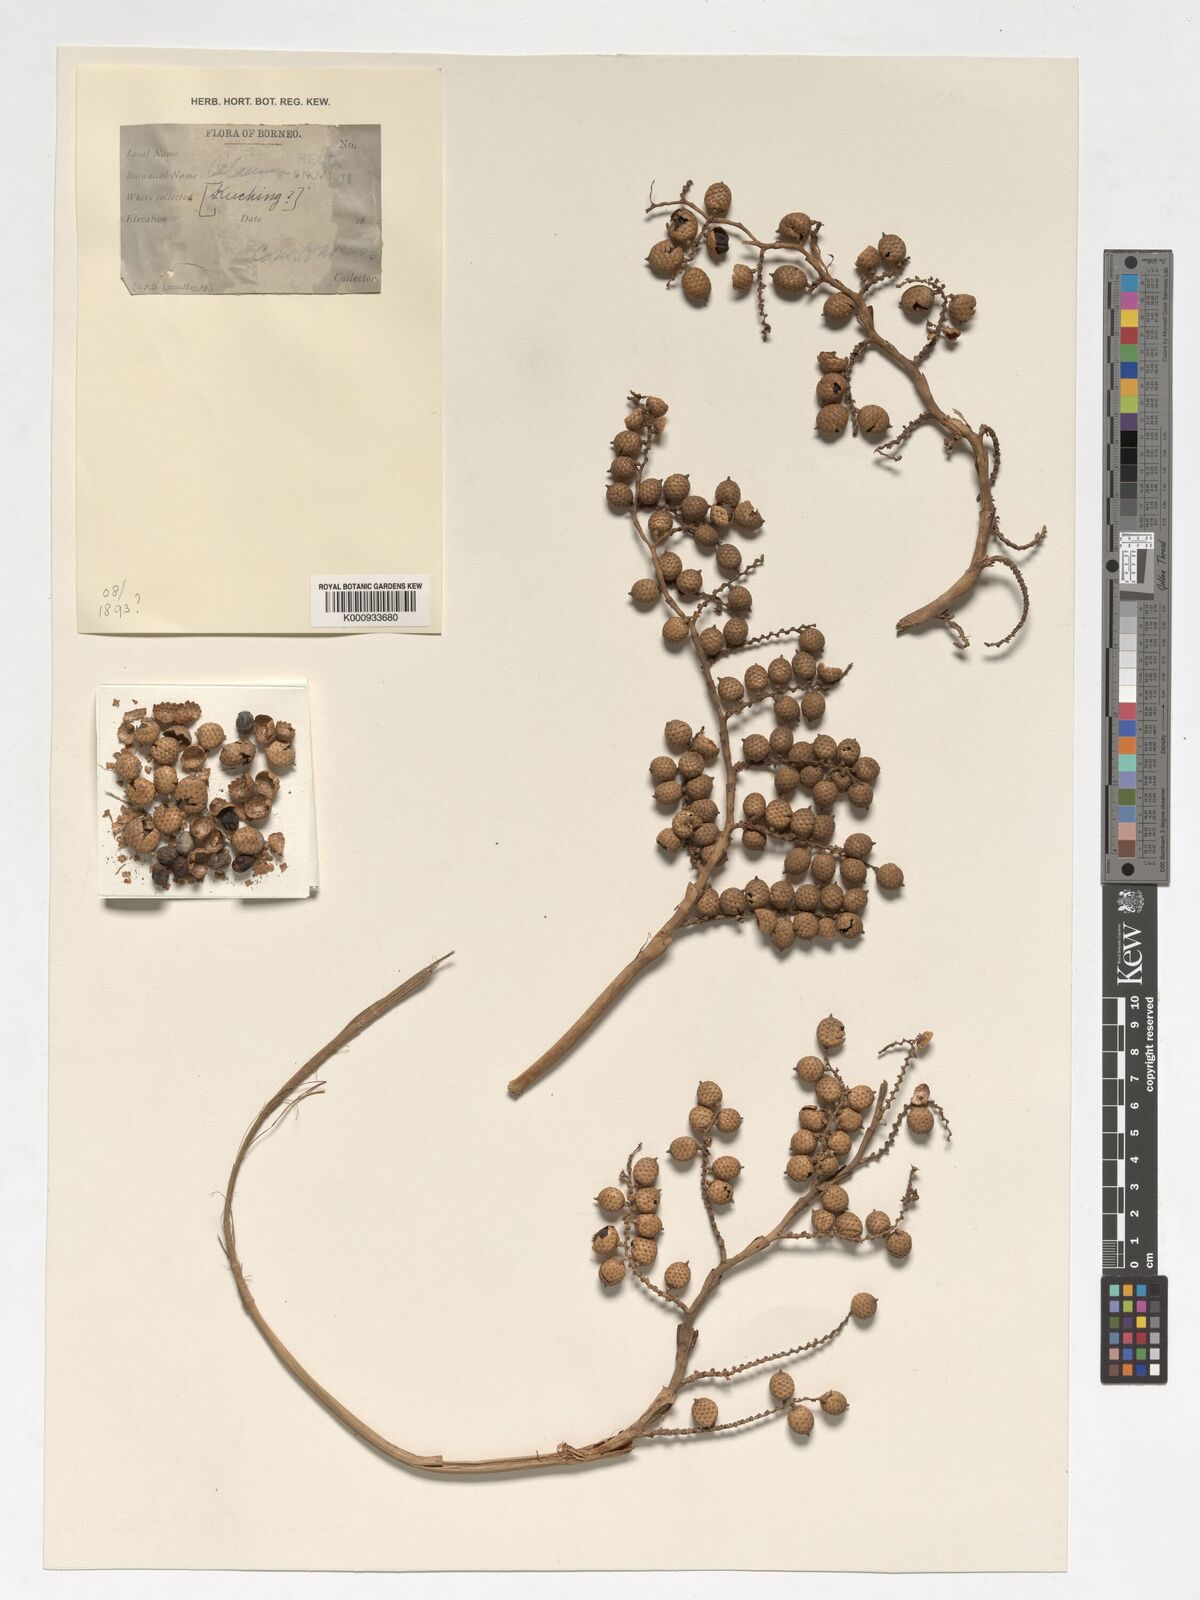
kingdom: Plantae
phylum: Tracheophyta
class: Liliopsida
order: Arecales
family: Arecaceae
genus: Calamus
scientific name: Calamus
